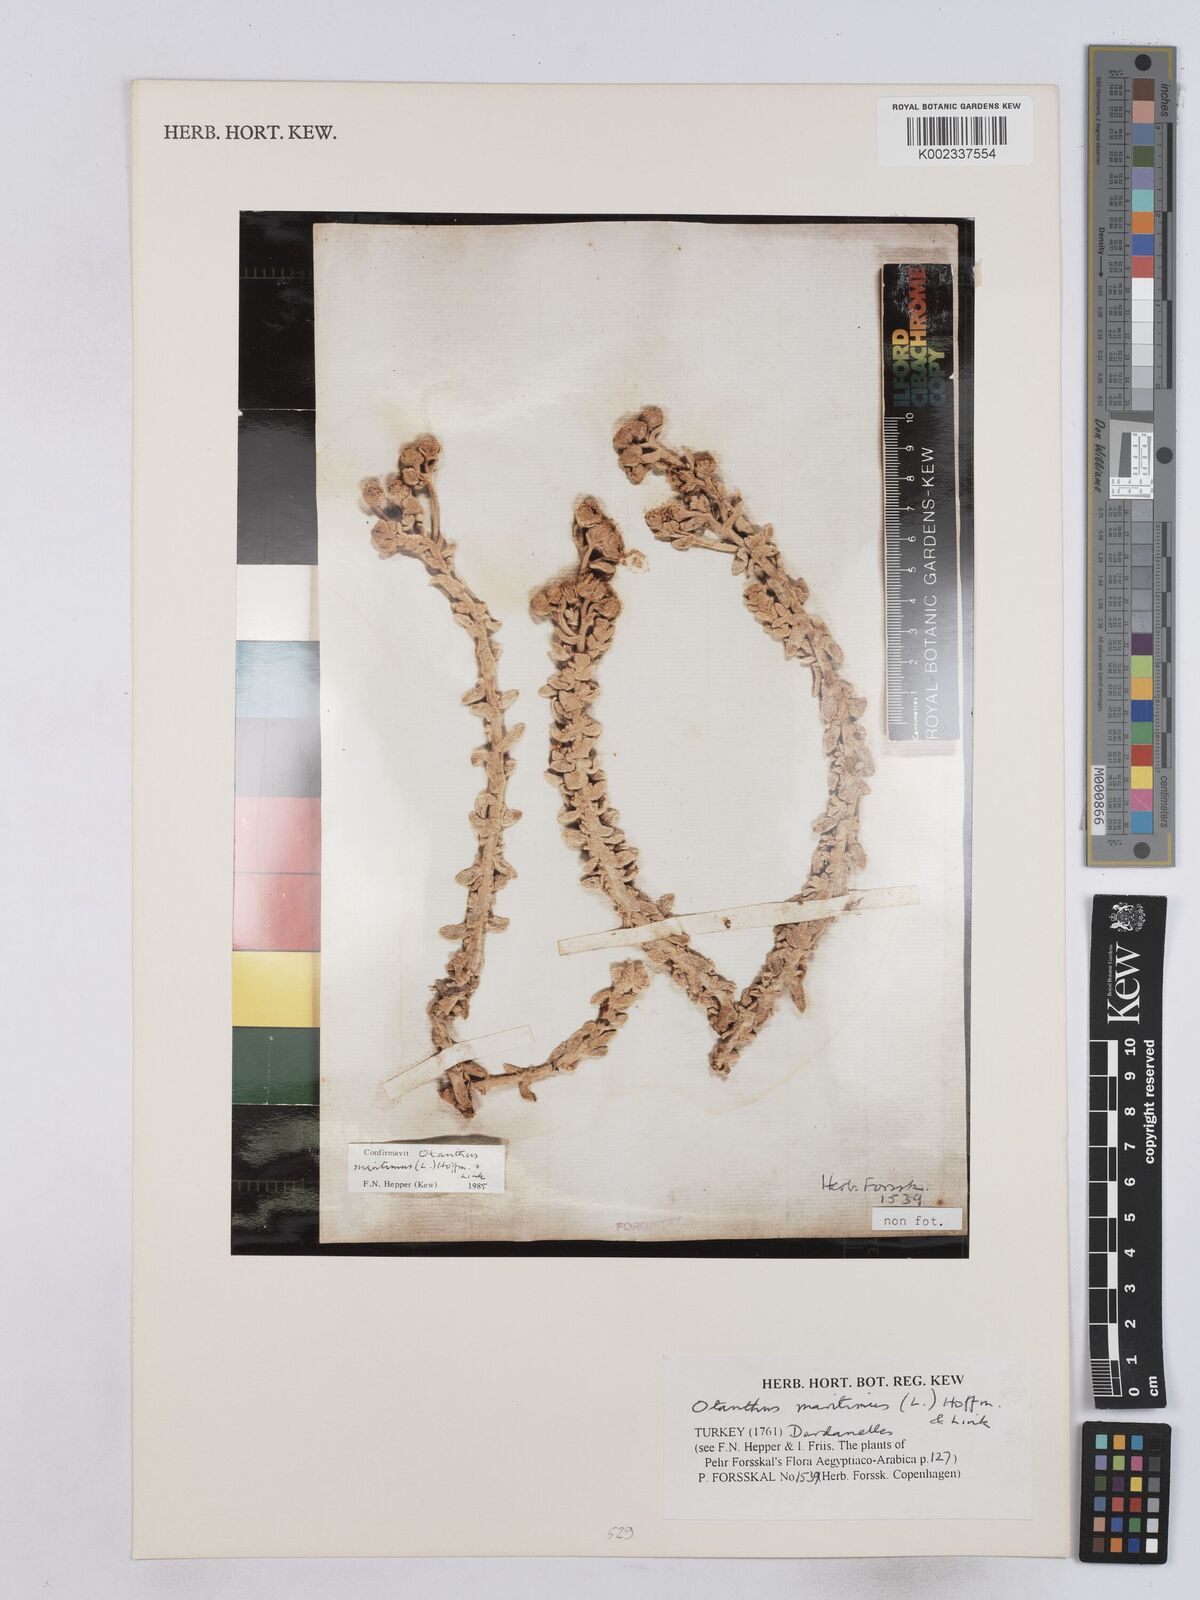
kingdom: Plantae
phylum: Tracheophyta
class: Magnoliopsida
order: Asterales
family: Asteraceae
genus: Achillea
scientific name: Achillea maritima
